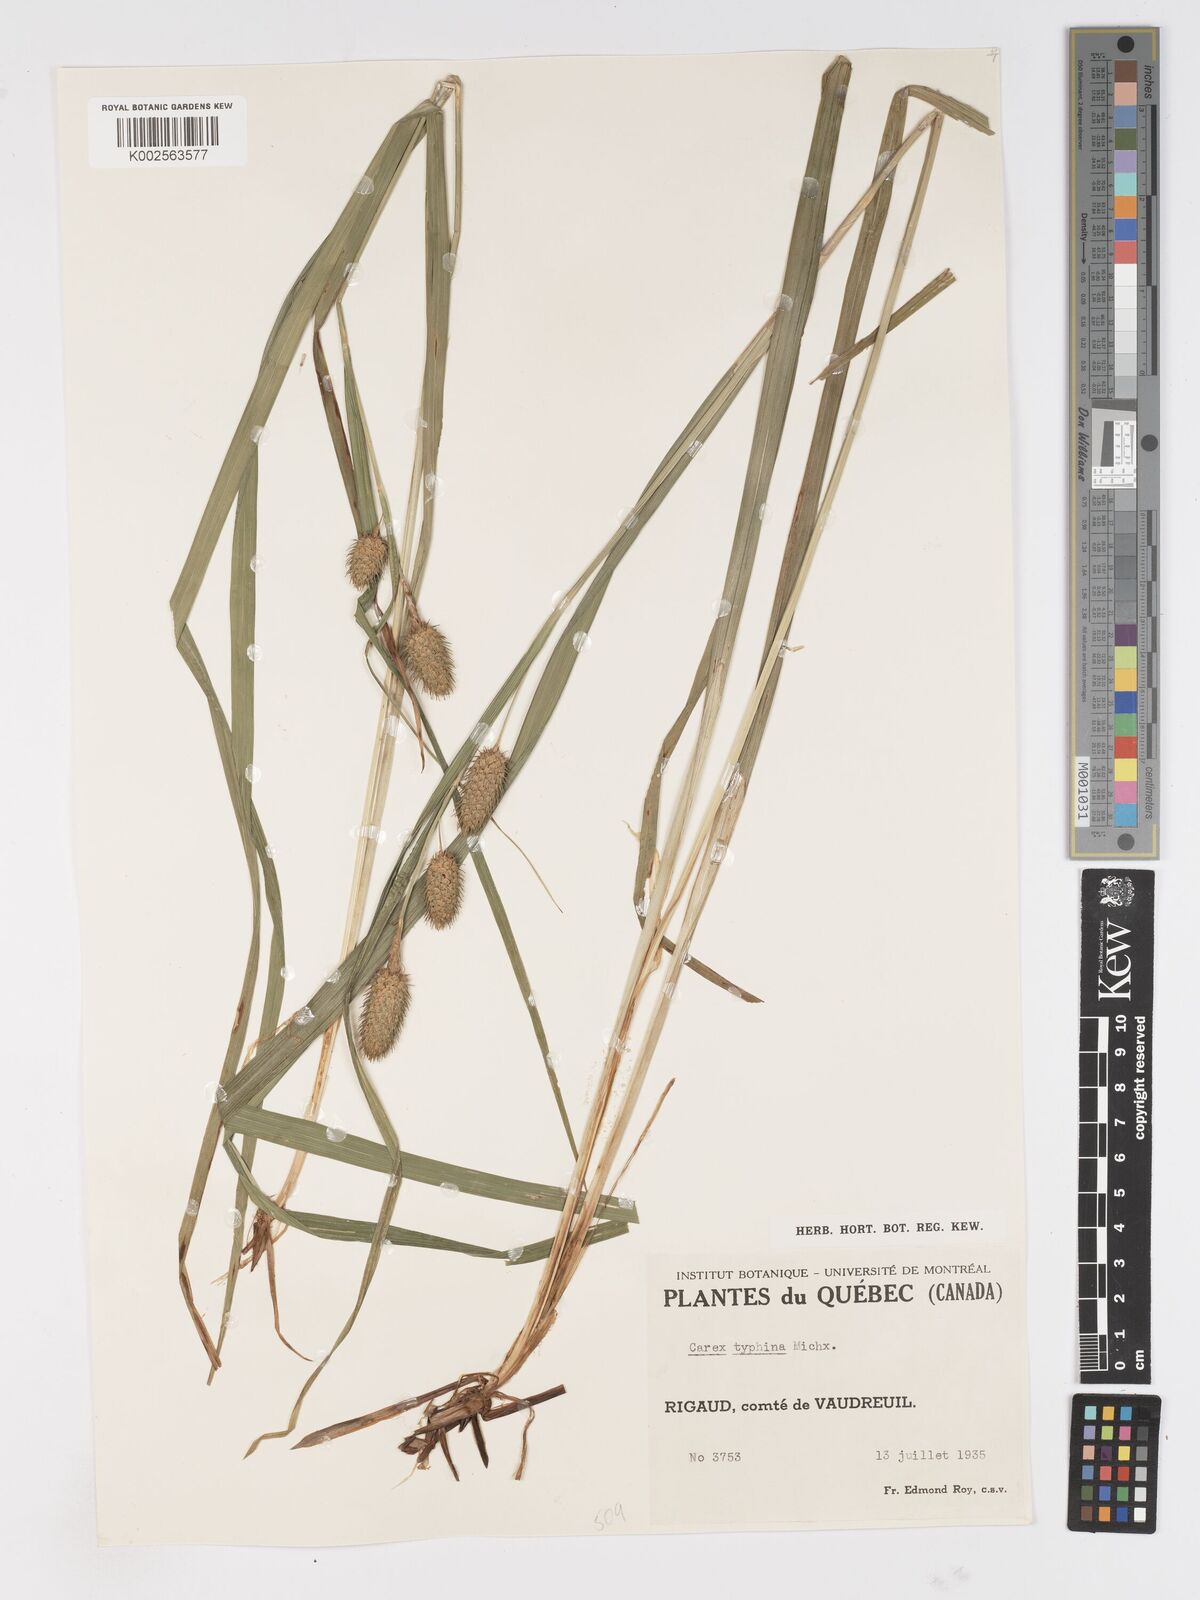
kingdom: Plantae
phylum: Tracheophyta
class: Liliopsida
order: Poales
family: Cyperaceae
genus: Carex
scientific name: Carex typhina
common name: Cattail sedge
